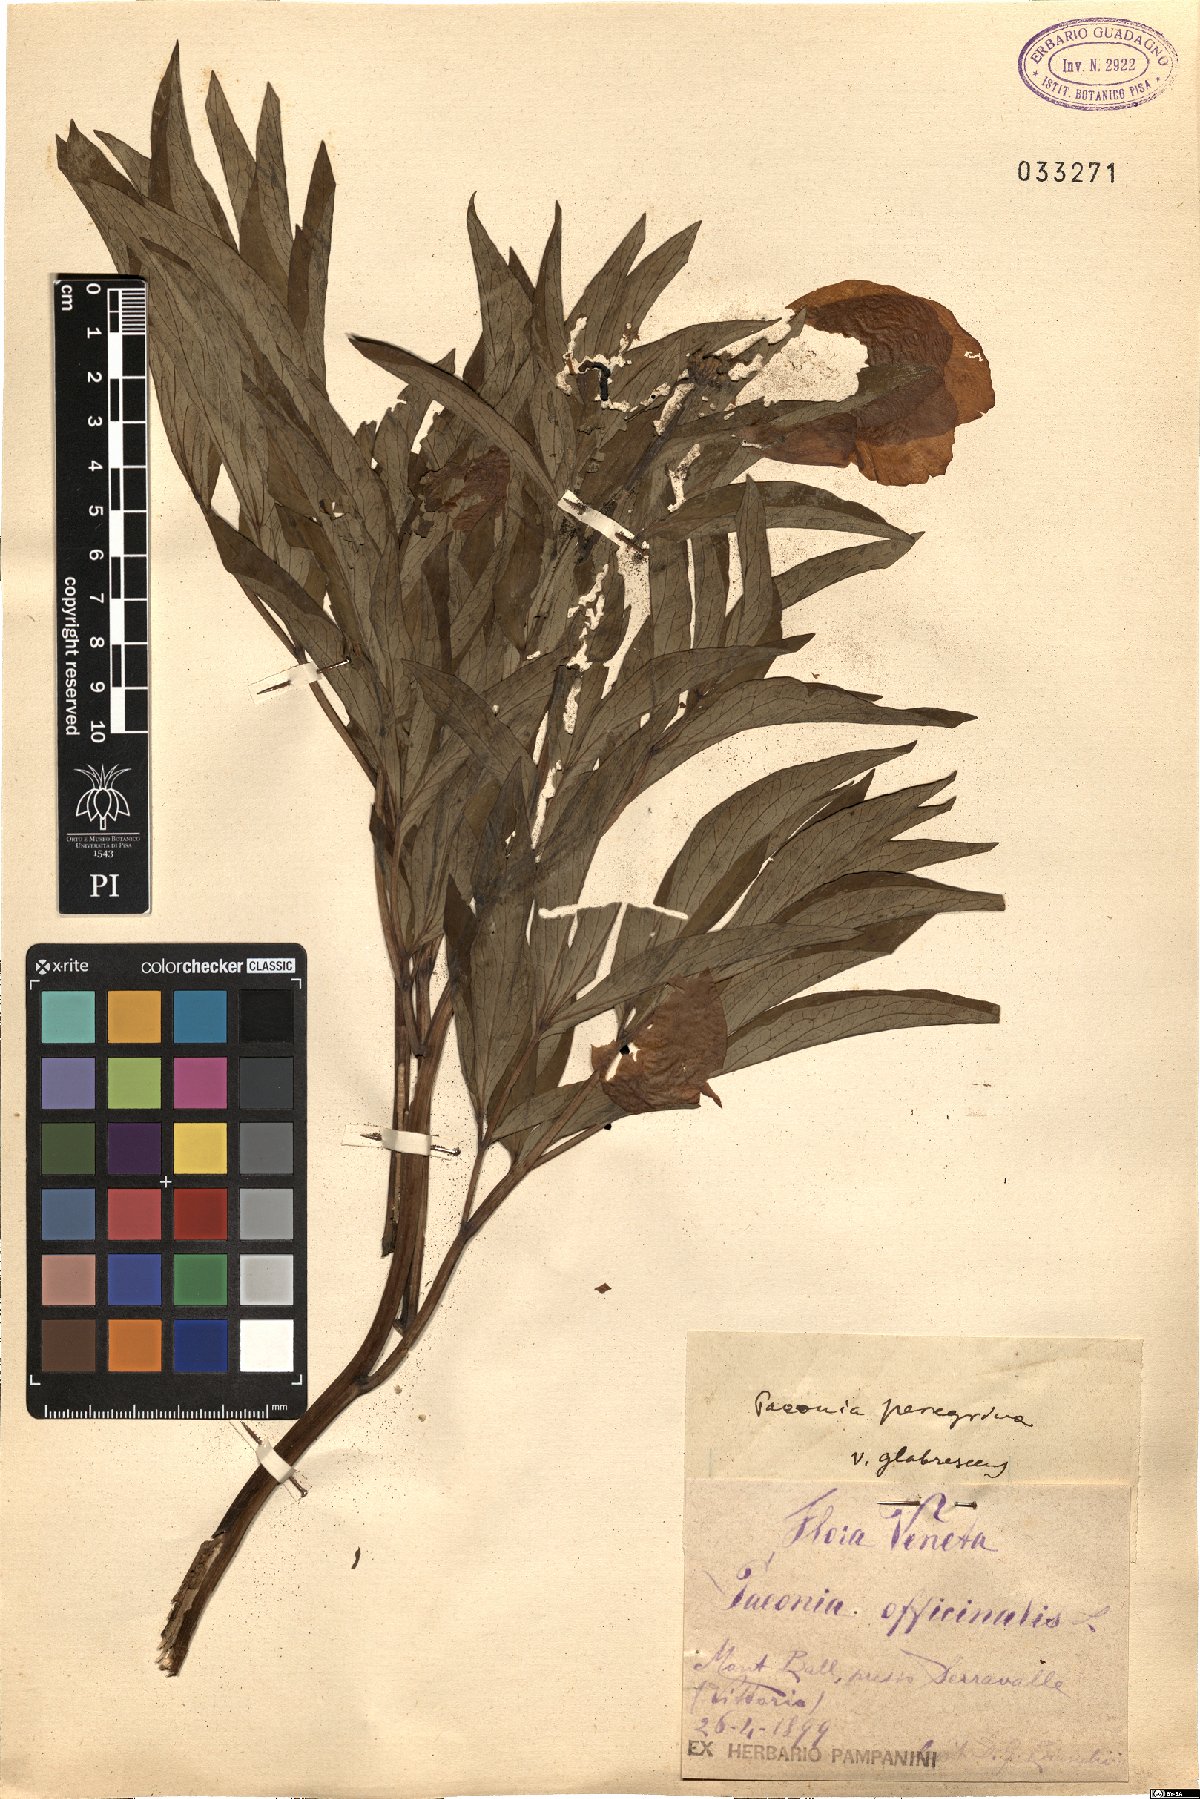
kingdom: Plantae
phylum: Tracheophyta
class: Magnoliopsida
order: Saxifragales
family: Paeoniaceae
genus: Paeonia
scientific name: Paeonia officinalis
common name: Common peony
